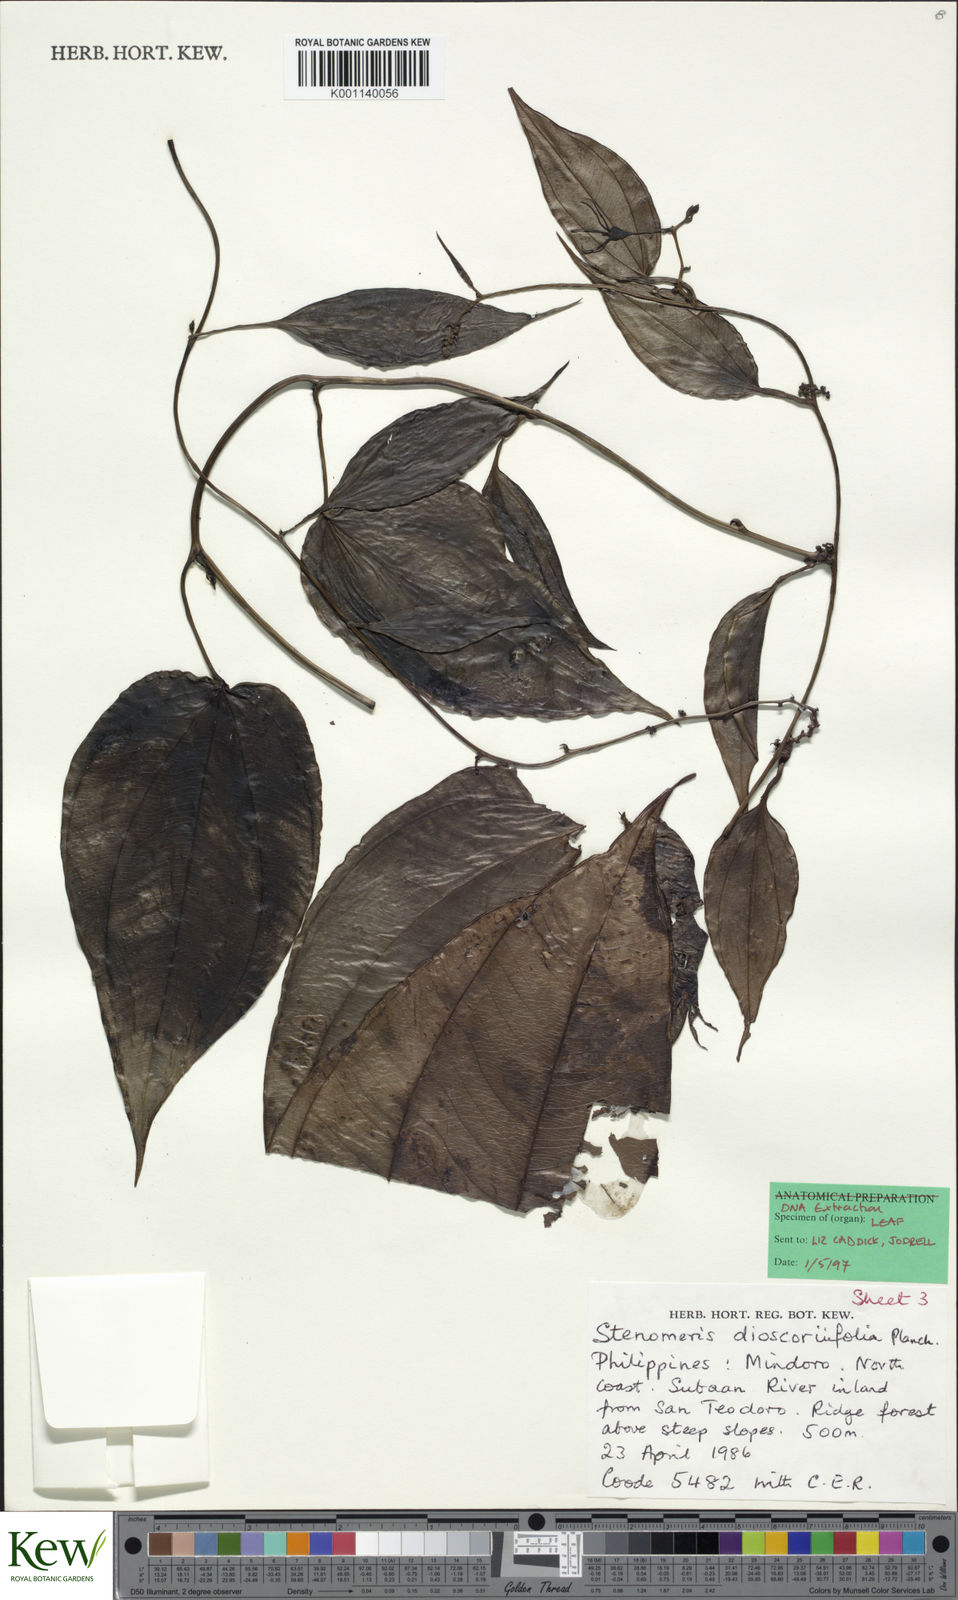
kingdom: Plantae
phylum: Tracheophyta
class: Liliopsida
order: Dioscoreales
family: Dioscoreaceae
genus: Stenomeris
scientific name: Stenomeris dioscoreifolia
